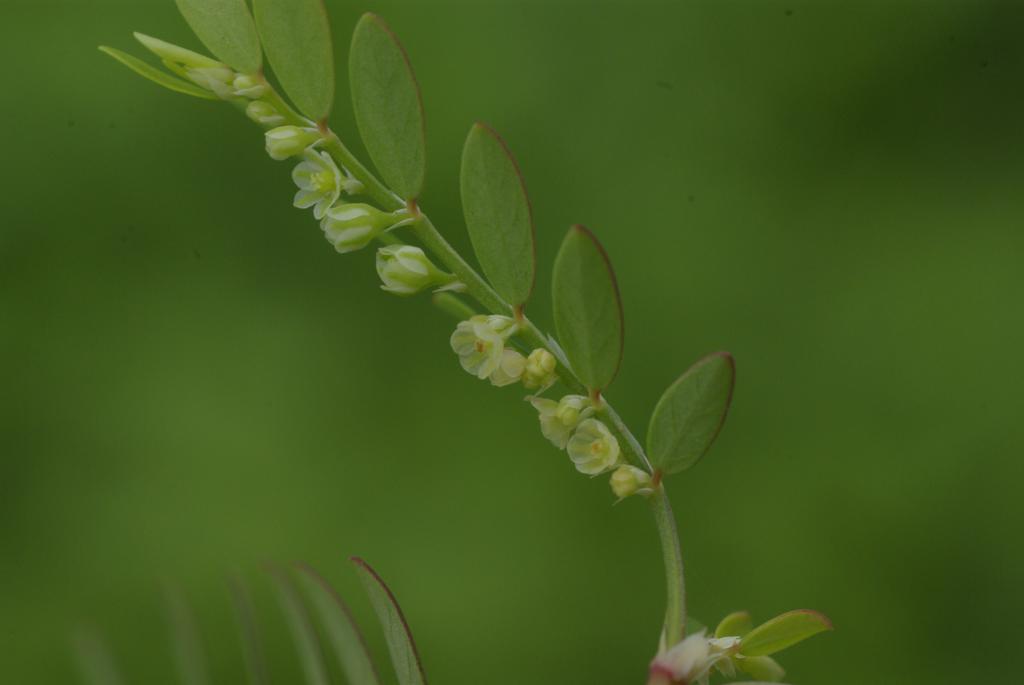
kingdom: Plantae
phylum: Tracheophyta
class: Magnoliopsida
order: Malpighiales
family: Phyllanthaceae
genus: Phyllanthus
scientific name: Phyllanthus debilis
